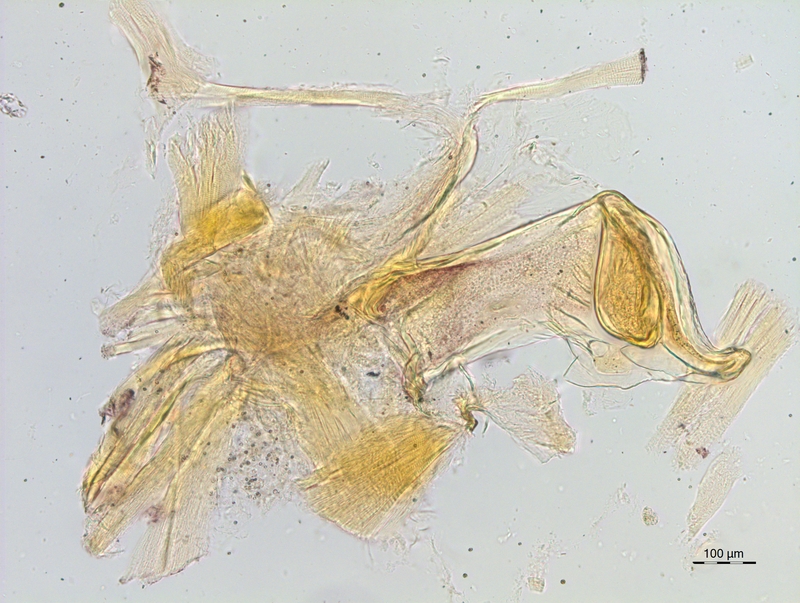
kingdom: Animalia
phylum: Arthropoda
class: Diplopoda
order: Chordeumatida
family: Craspedosomatidae
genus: Craspedosoma
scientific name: Craspedosoma rawlinsii
